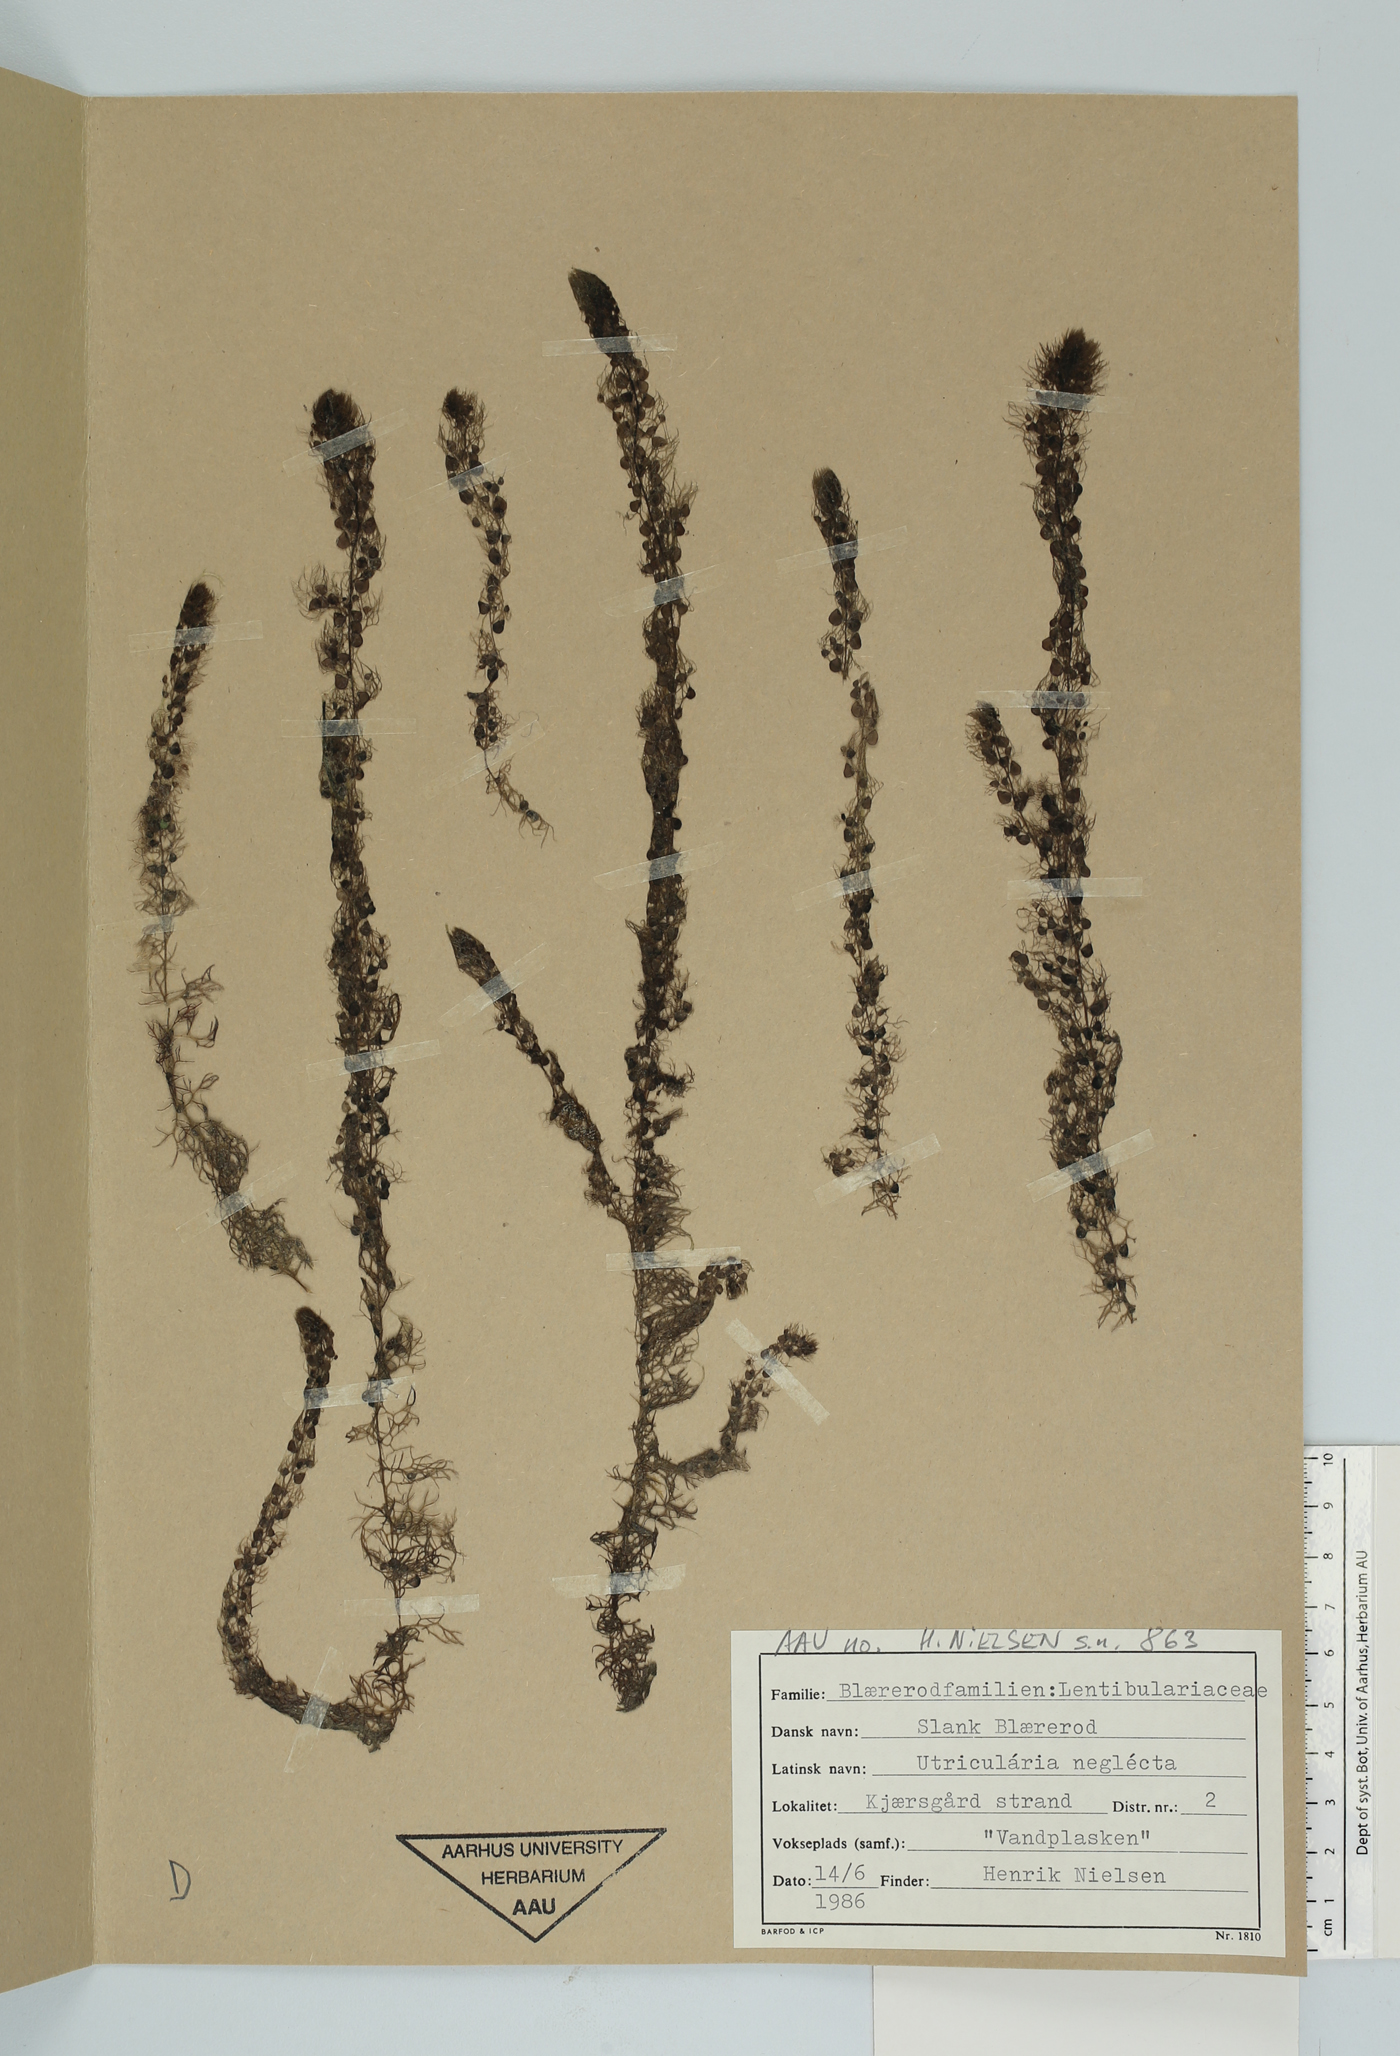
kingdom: Plantae
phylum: Tracheophyta
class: Magnoliopsida
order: Lamiales
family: Lentibulariaceae
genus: Utricularia
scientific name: Utricularia australis
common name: Bladderwort
